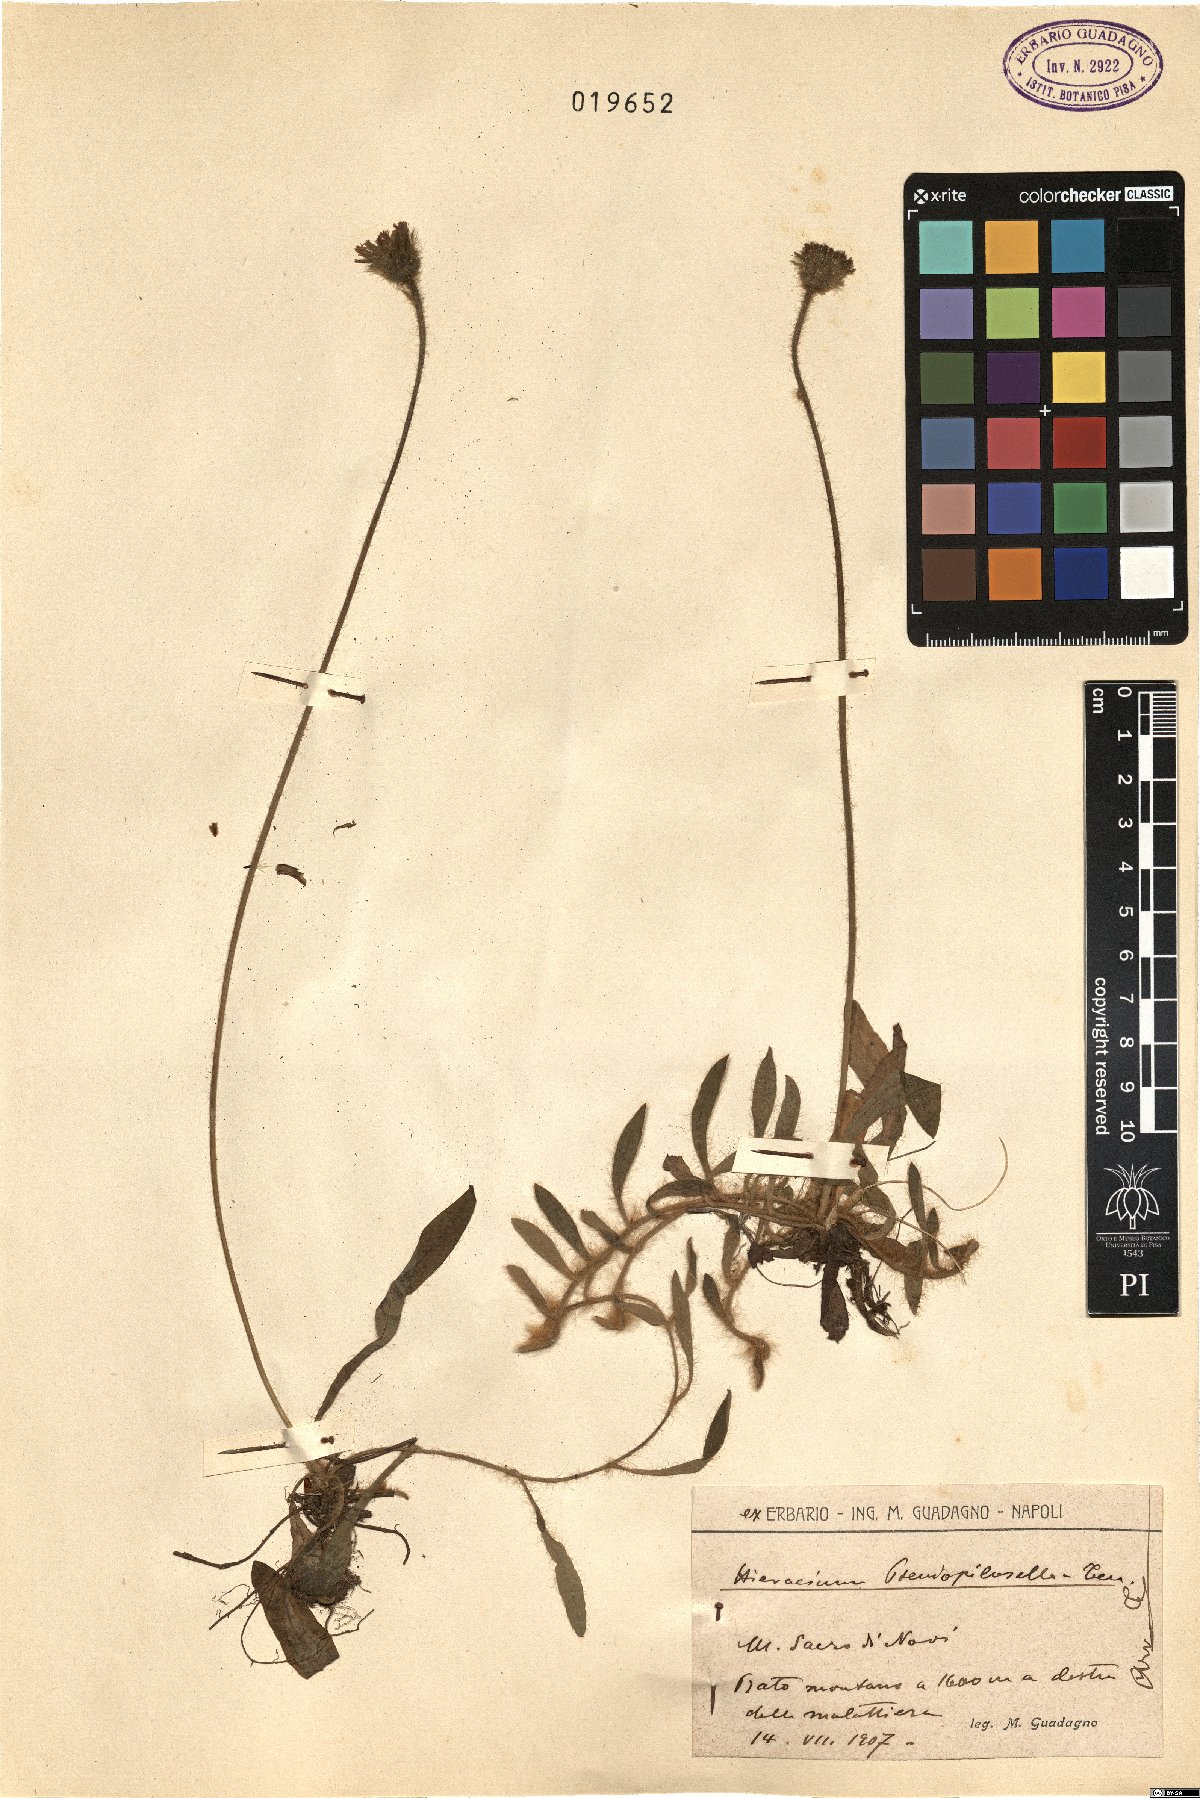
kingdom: Plantae
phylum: Tracheophyta
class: Magnoliopsida
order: Asterales
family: Asteraceae
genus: Pilosella
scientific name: Pilosella pseudopilosella
